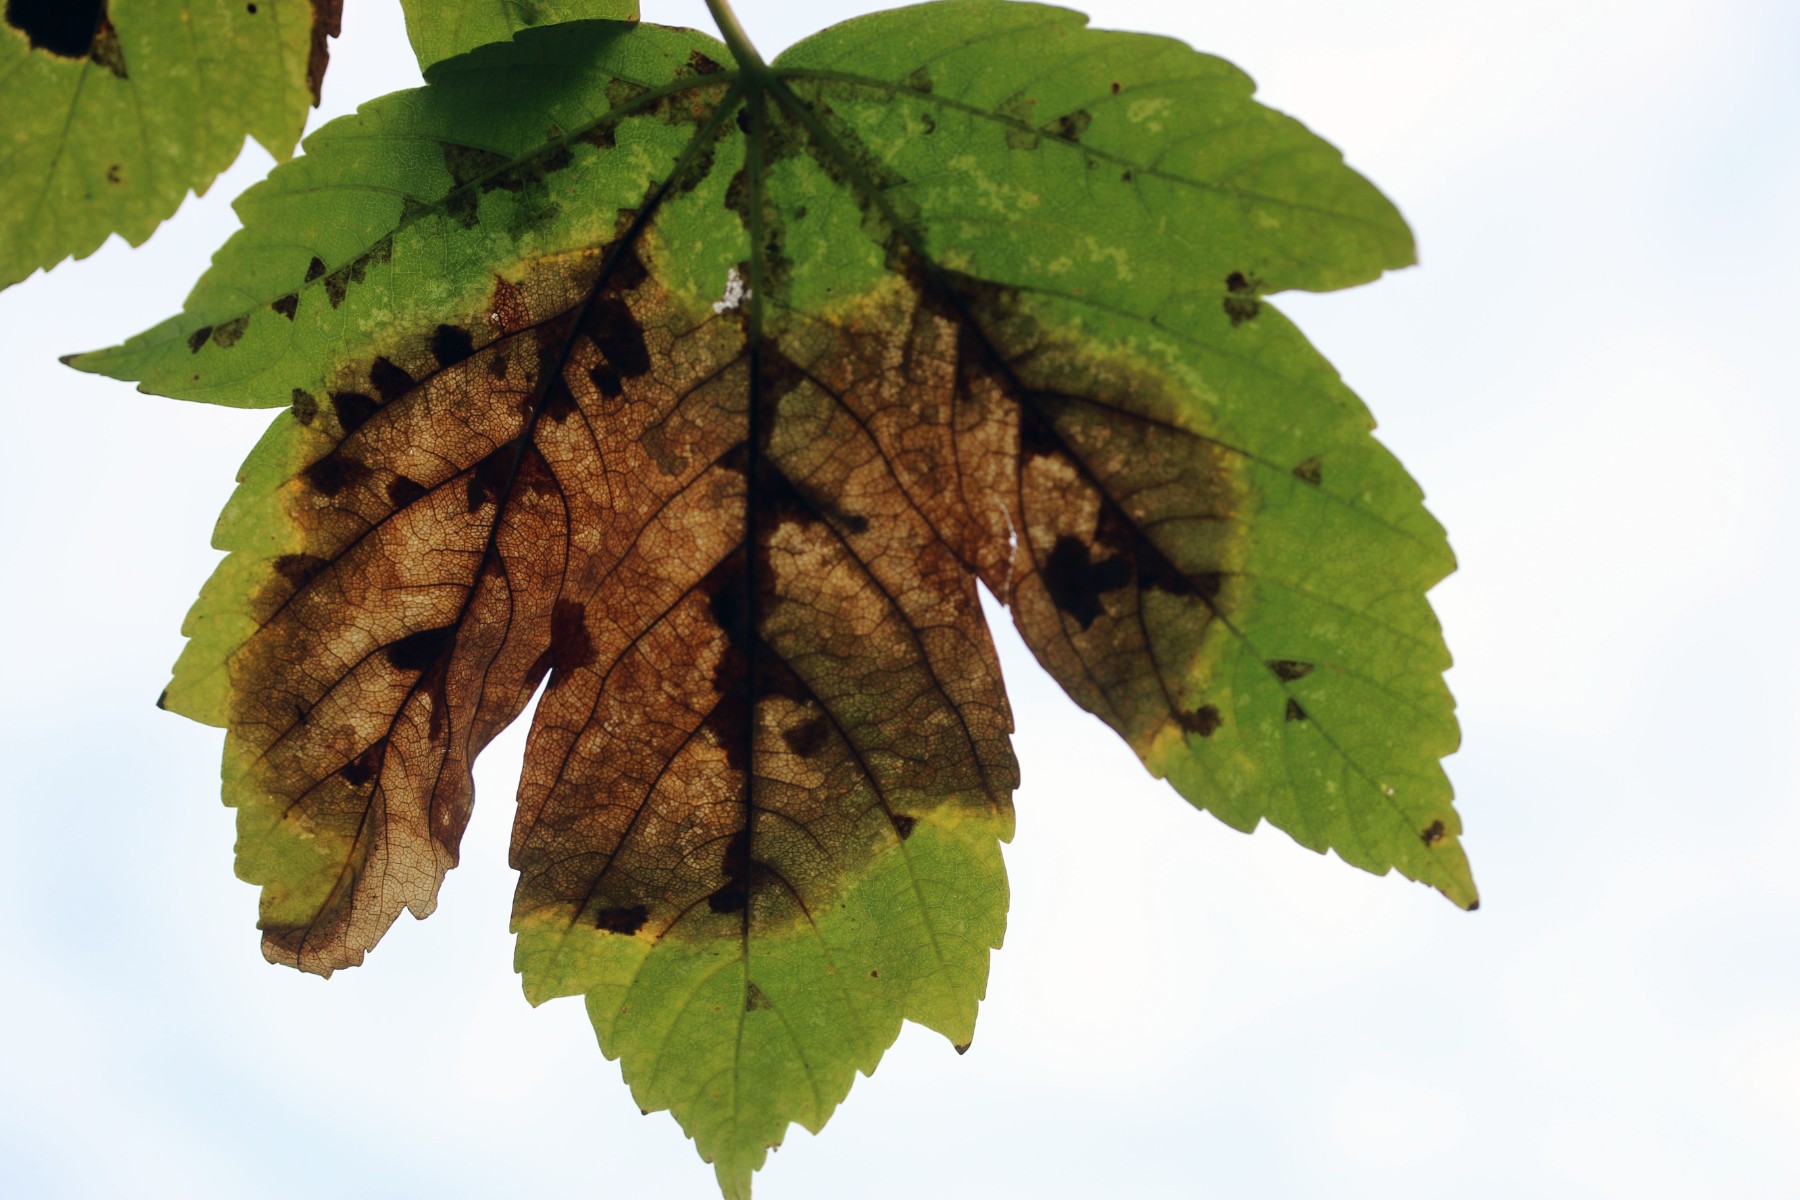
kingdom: Fungi
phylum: Ascomycota
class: Sordariomycetes
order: Diaporthales
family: Gnomoniaceae
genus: Pleuroceras
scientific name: Pleuroceras pseudoplatani
